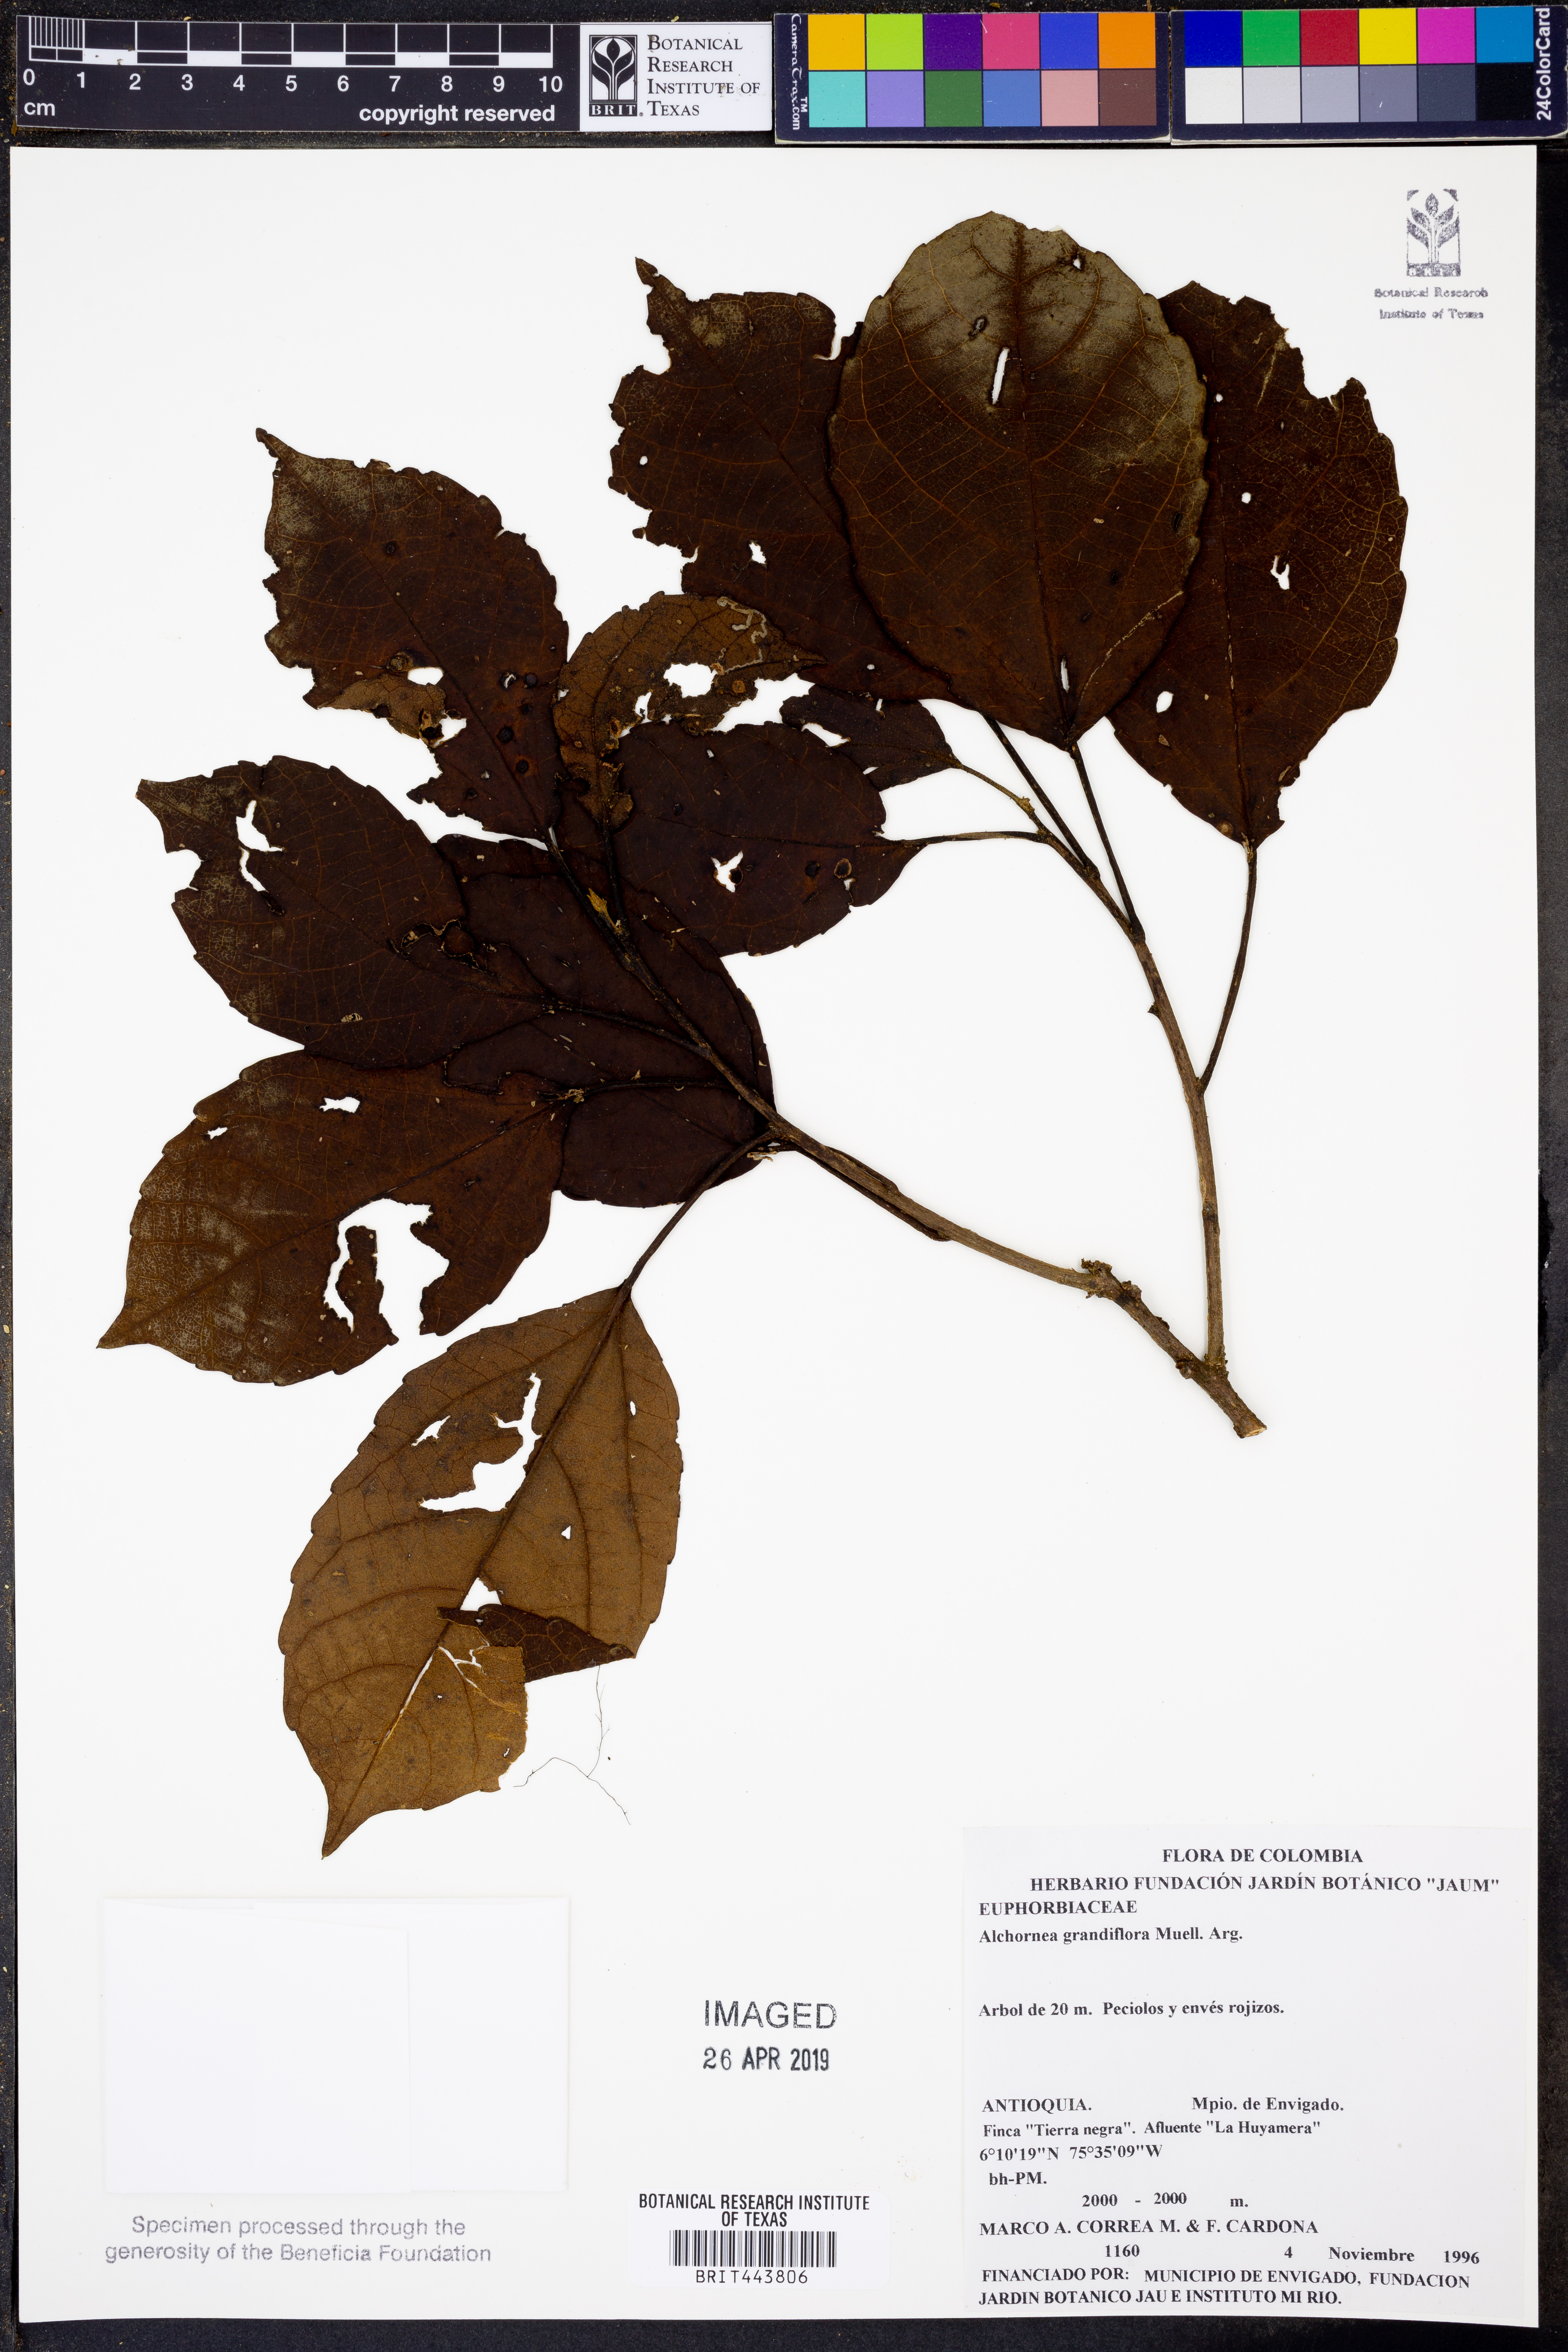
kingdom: Plantae
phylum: Tracheophyta
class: Magnoliopsida
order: Malpighiales
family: Euphorbiaceae
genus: Alchornea
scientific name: Alchornea grandiflora
